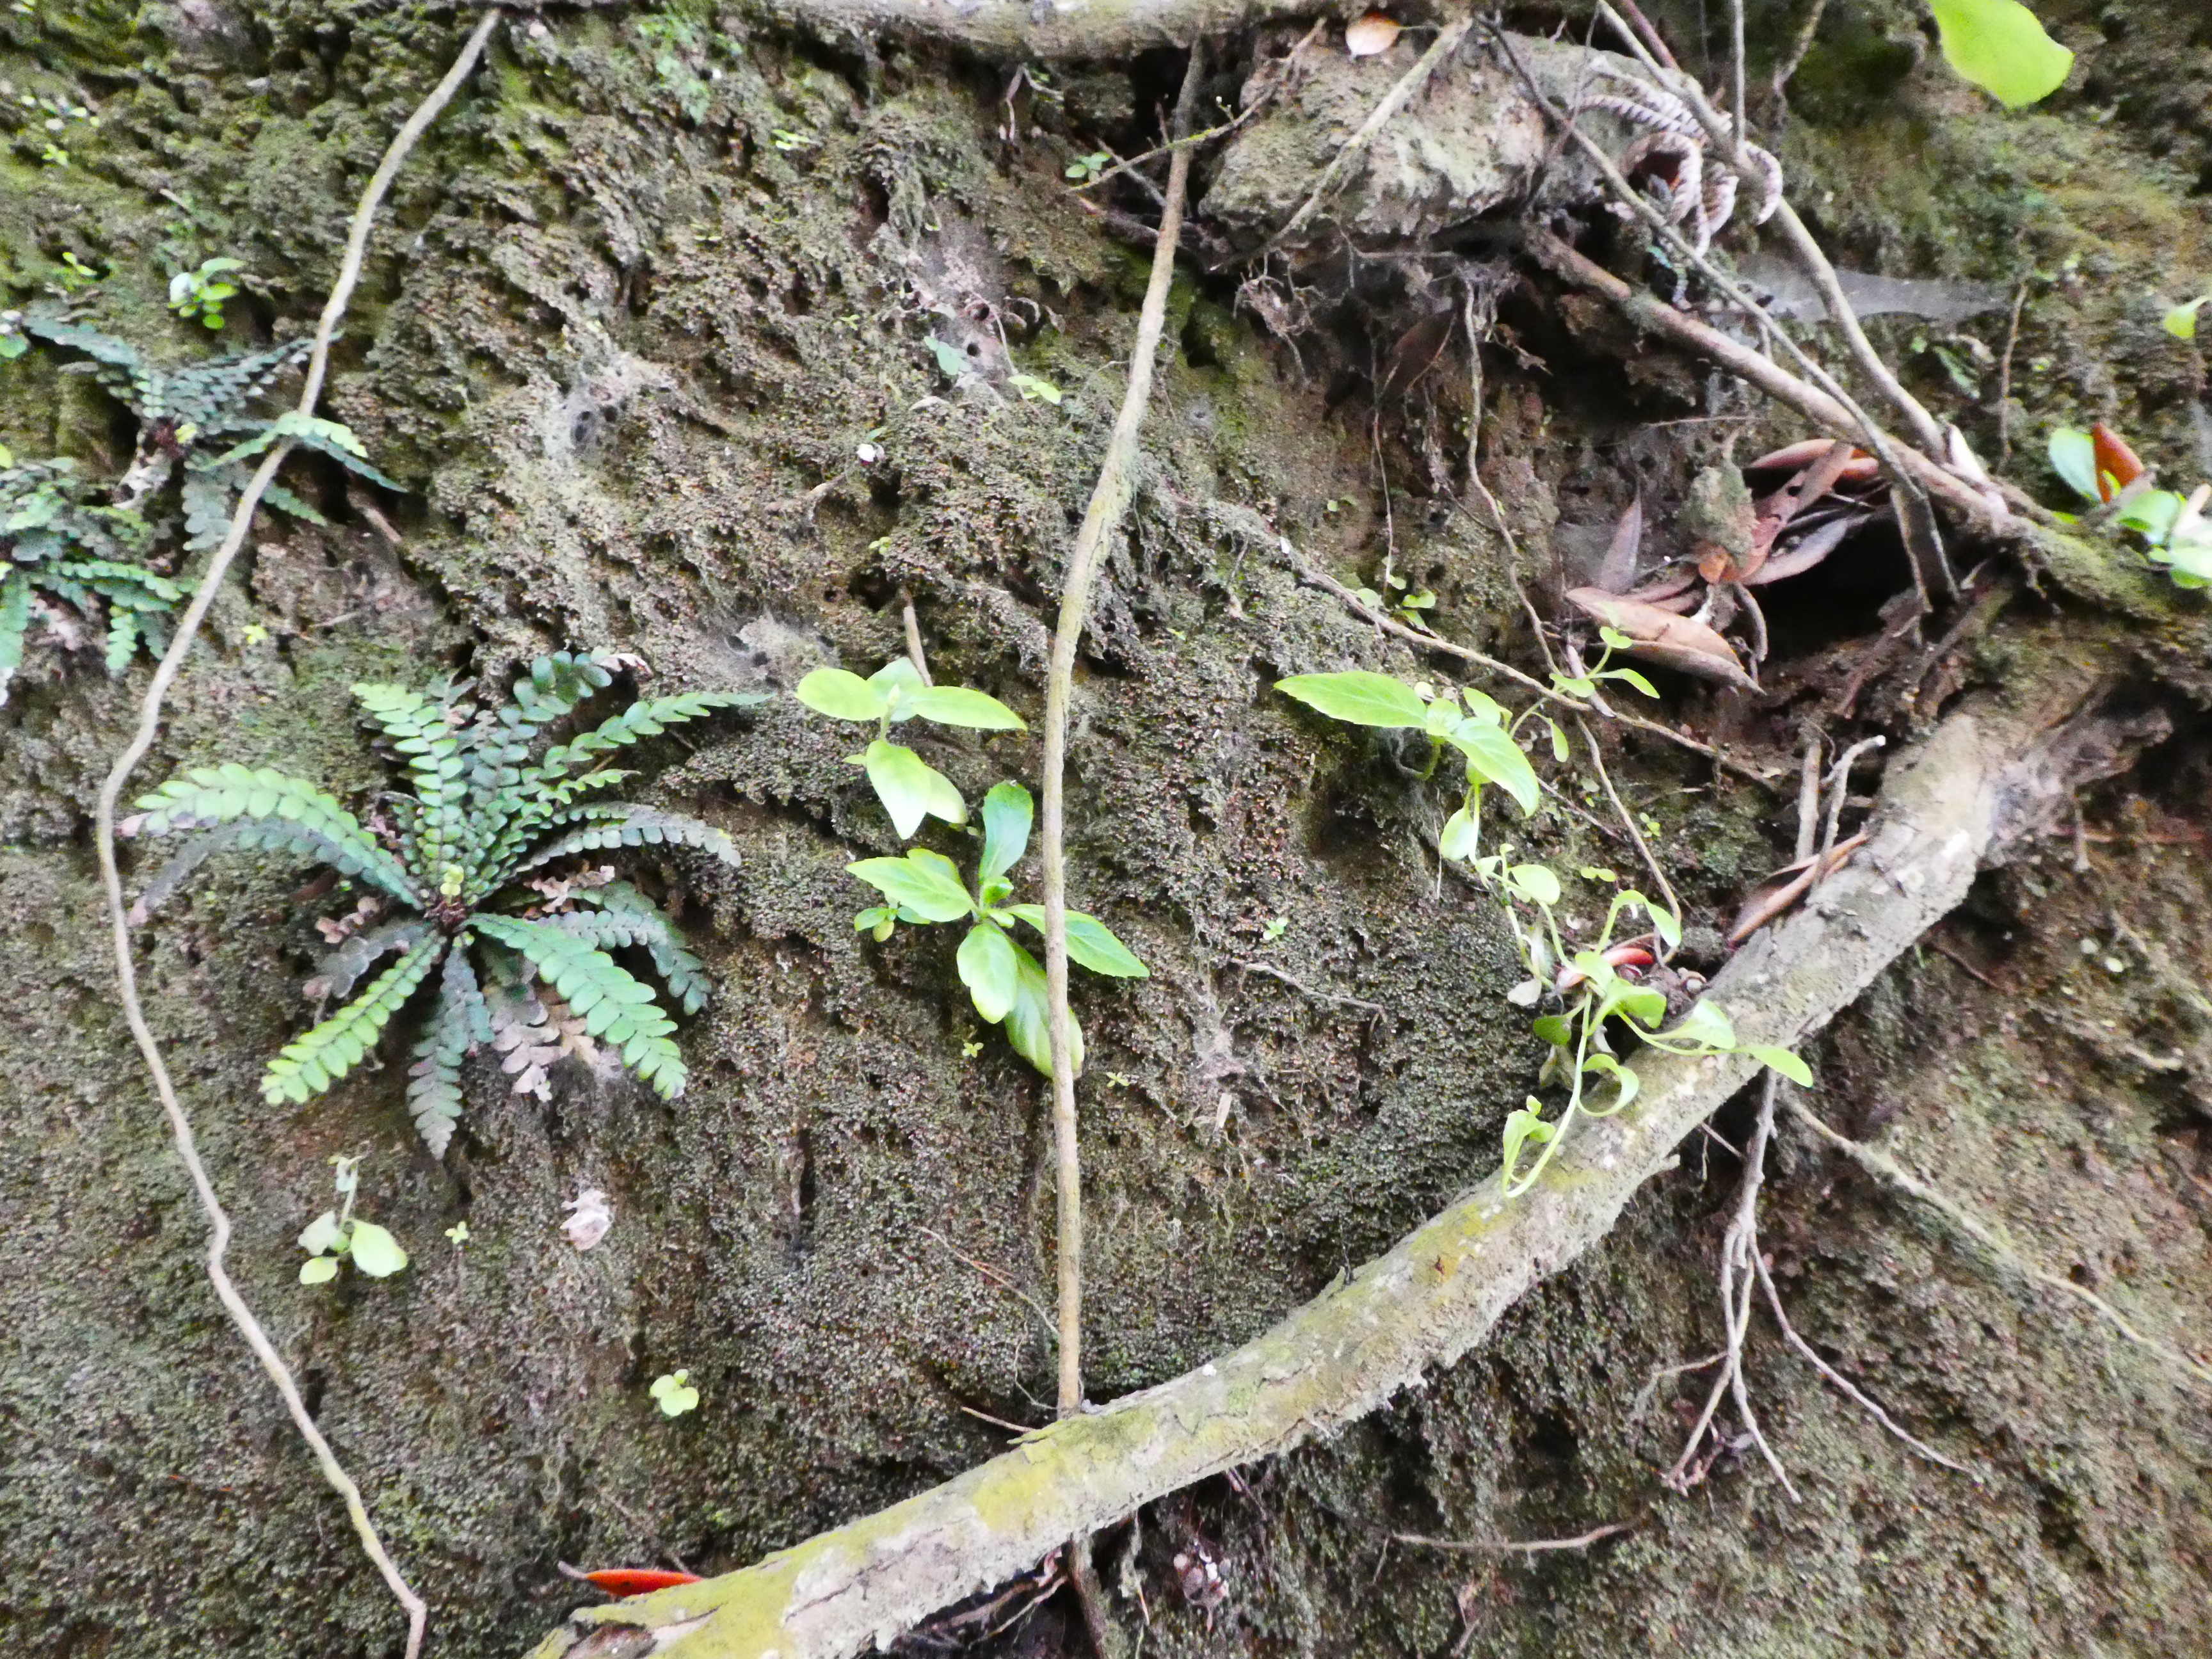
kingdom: Plantae
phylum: Tracheophyta
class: Magnoliopsida
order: Cornales
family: Hydrangeaceae
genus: Hydrangea
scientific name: Hydrangea macrophylla
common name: Hydrangea
